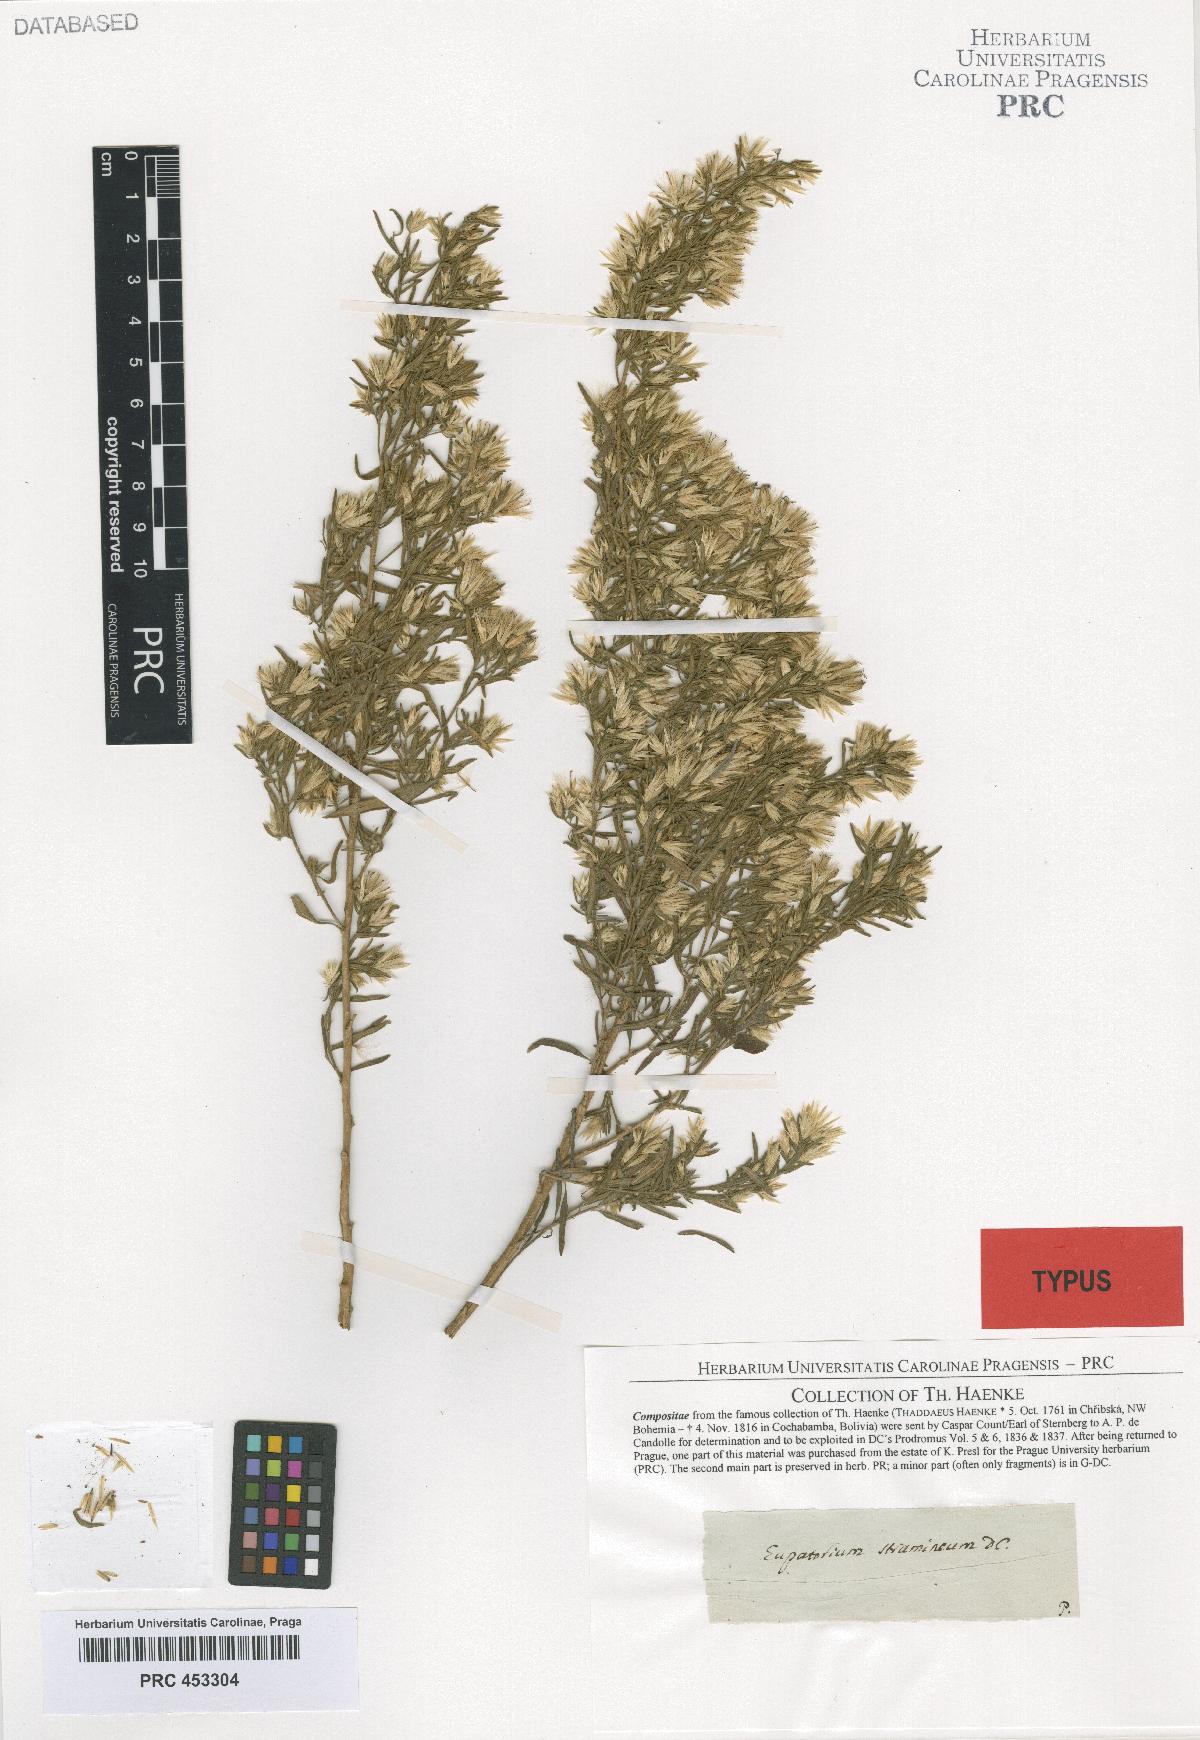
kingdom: Plantae
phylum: Tracheophyta
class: Magnoliopsida
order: Asterales
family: Asteraceae
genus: Helogyne
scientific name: Helogyne straminea
